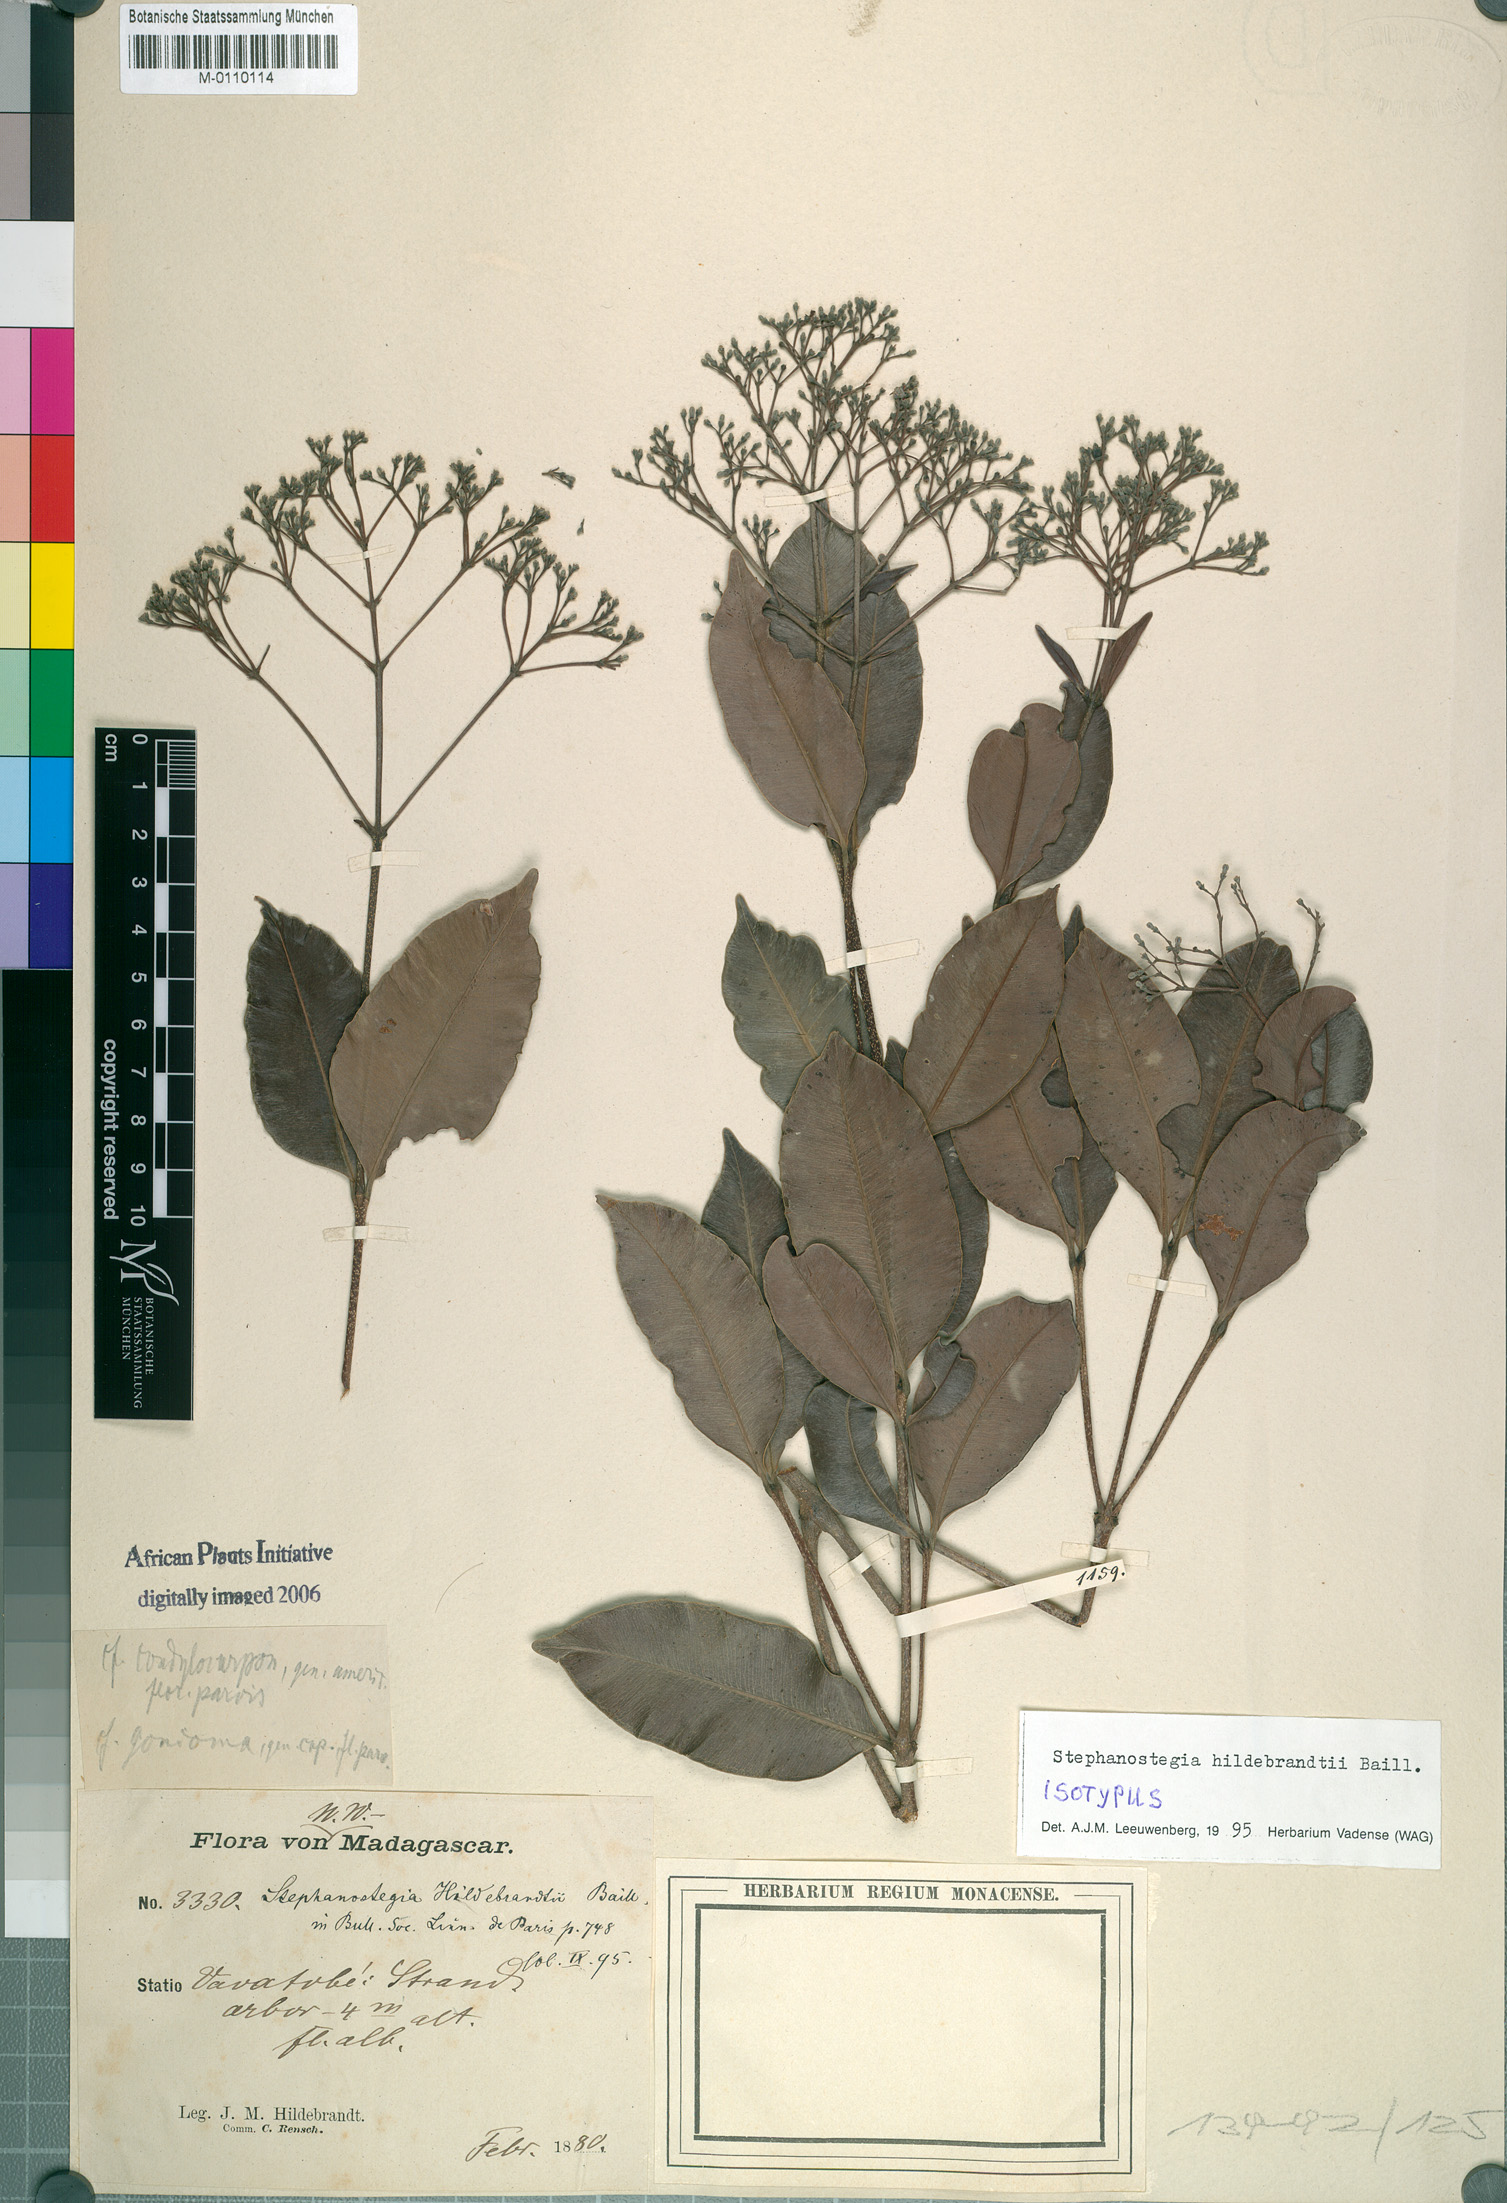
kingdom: Plantae
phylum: Tracheophyta
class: Magnoliopsida
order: Gentianales
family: Apocynaceae
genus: Stephanostegia
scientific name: Stephanostegia hildebrandtii
